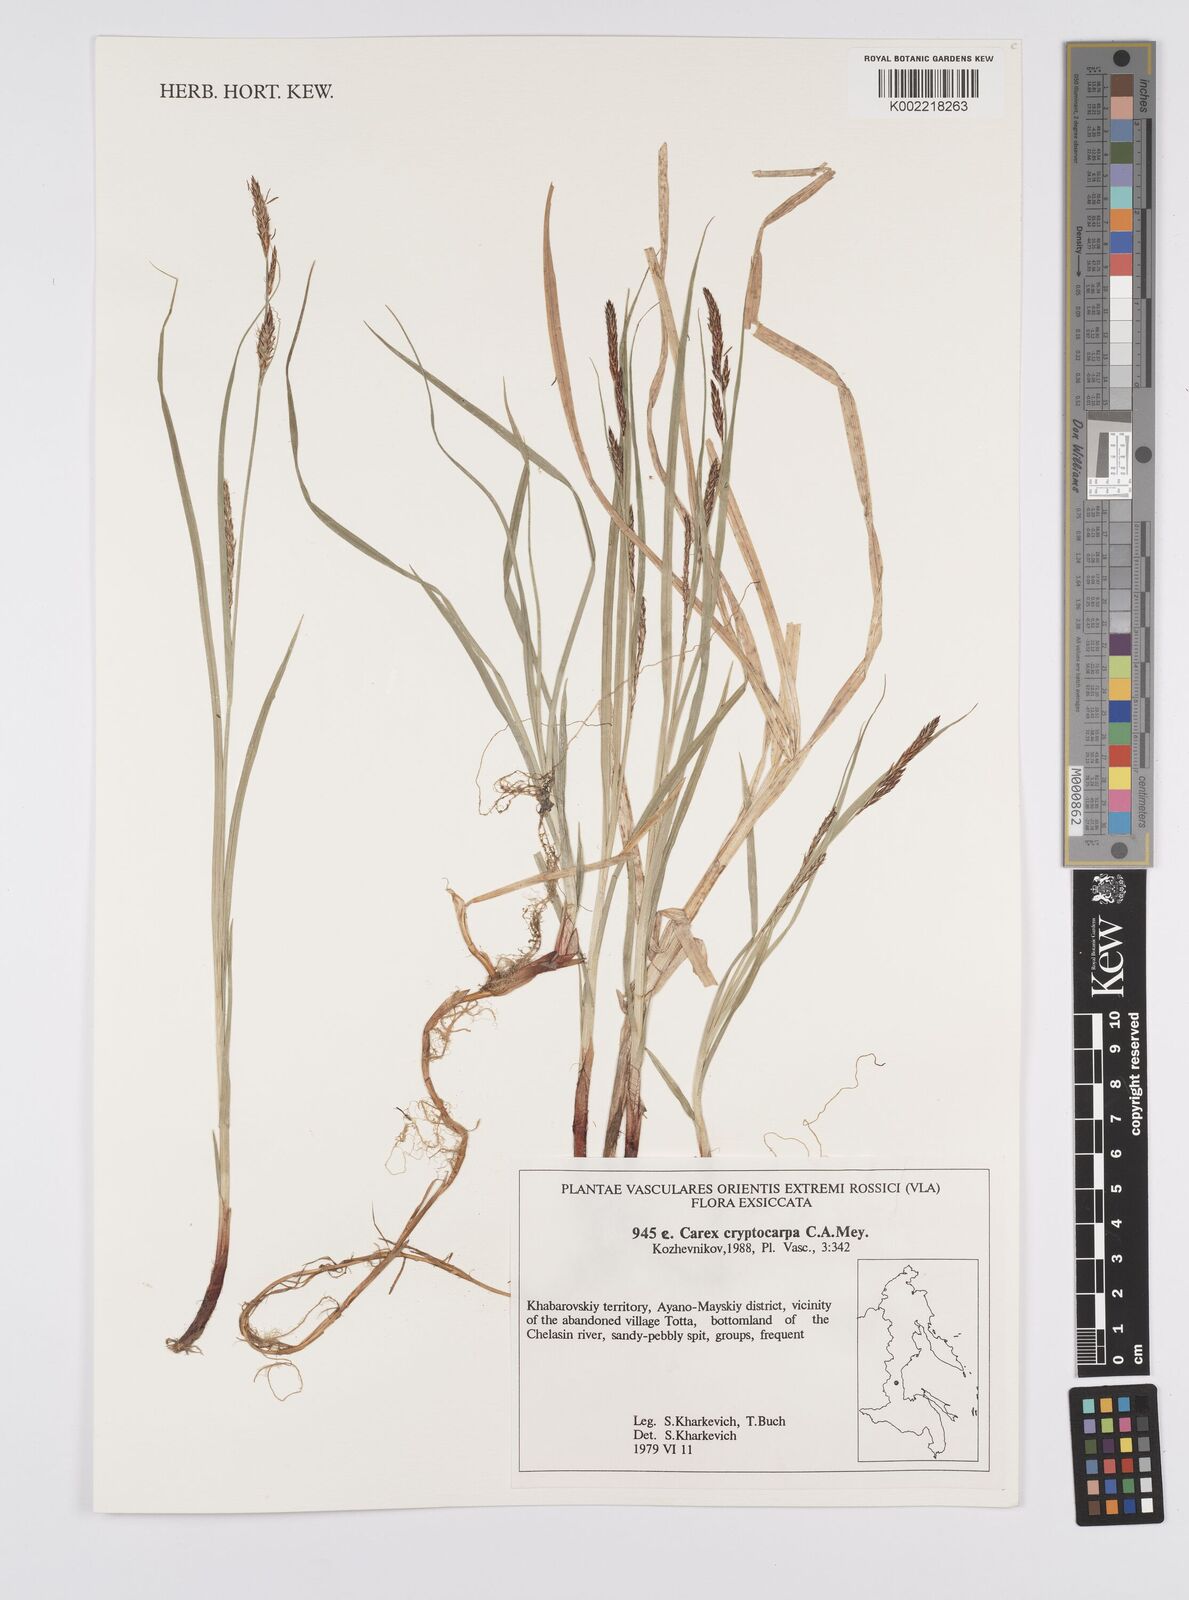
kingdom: Plantae
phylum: Tracheophyta
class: Liliopsida
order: Poales
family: Cyperaceae
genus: Carex
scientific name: Carex lyngbyei
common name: Lyngbye's sedge
